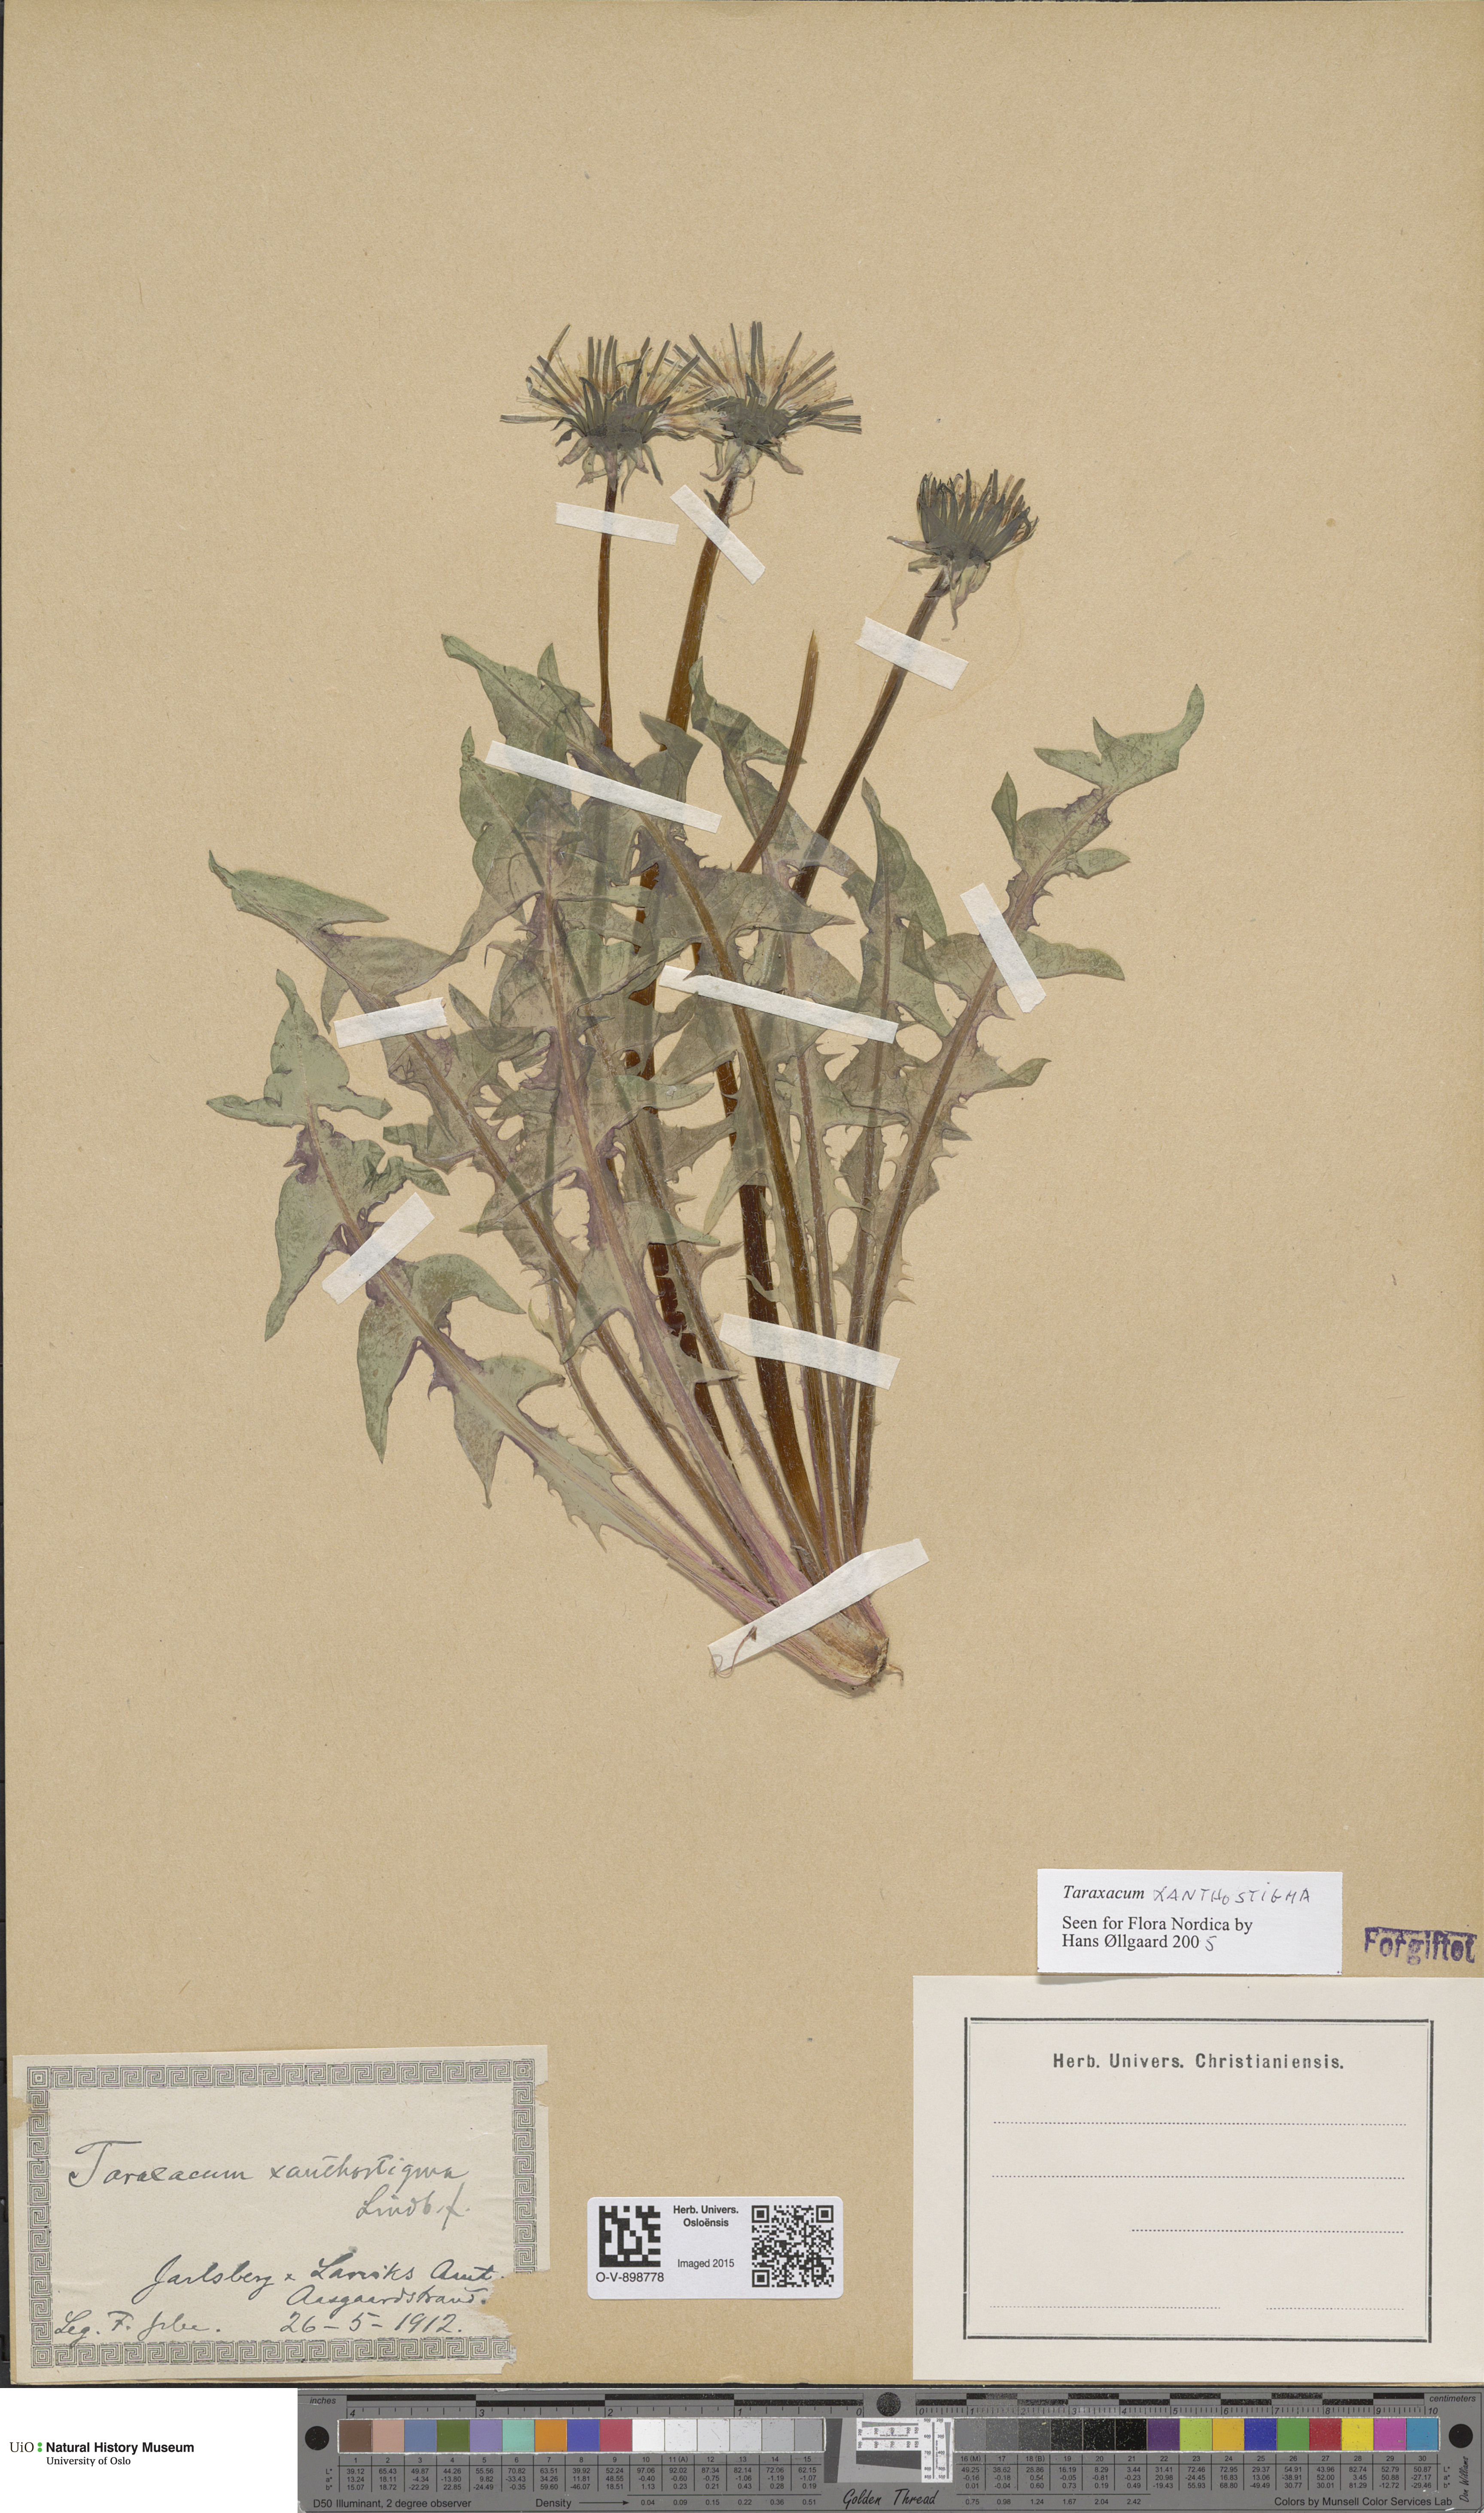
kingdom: Plantae
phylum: Tracheophyta
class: Magnoliopsida
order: Asterales
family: Asteraceae
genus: Taraxacum
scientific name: Taraxacum xanthostigma
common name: Ochre-styled dandelion
